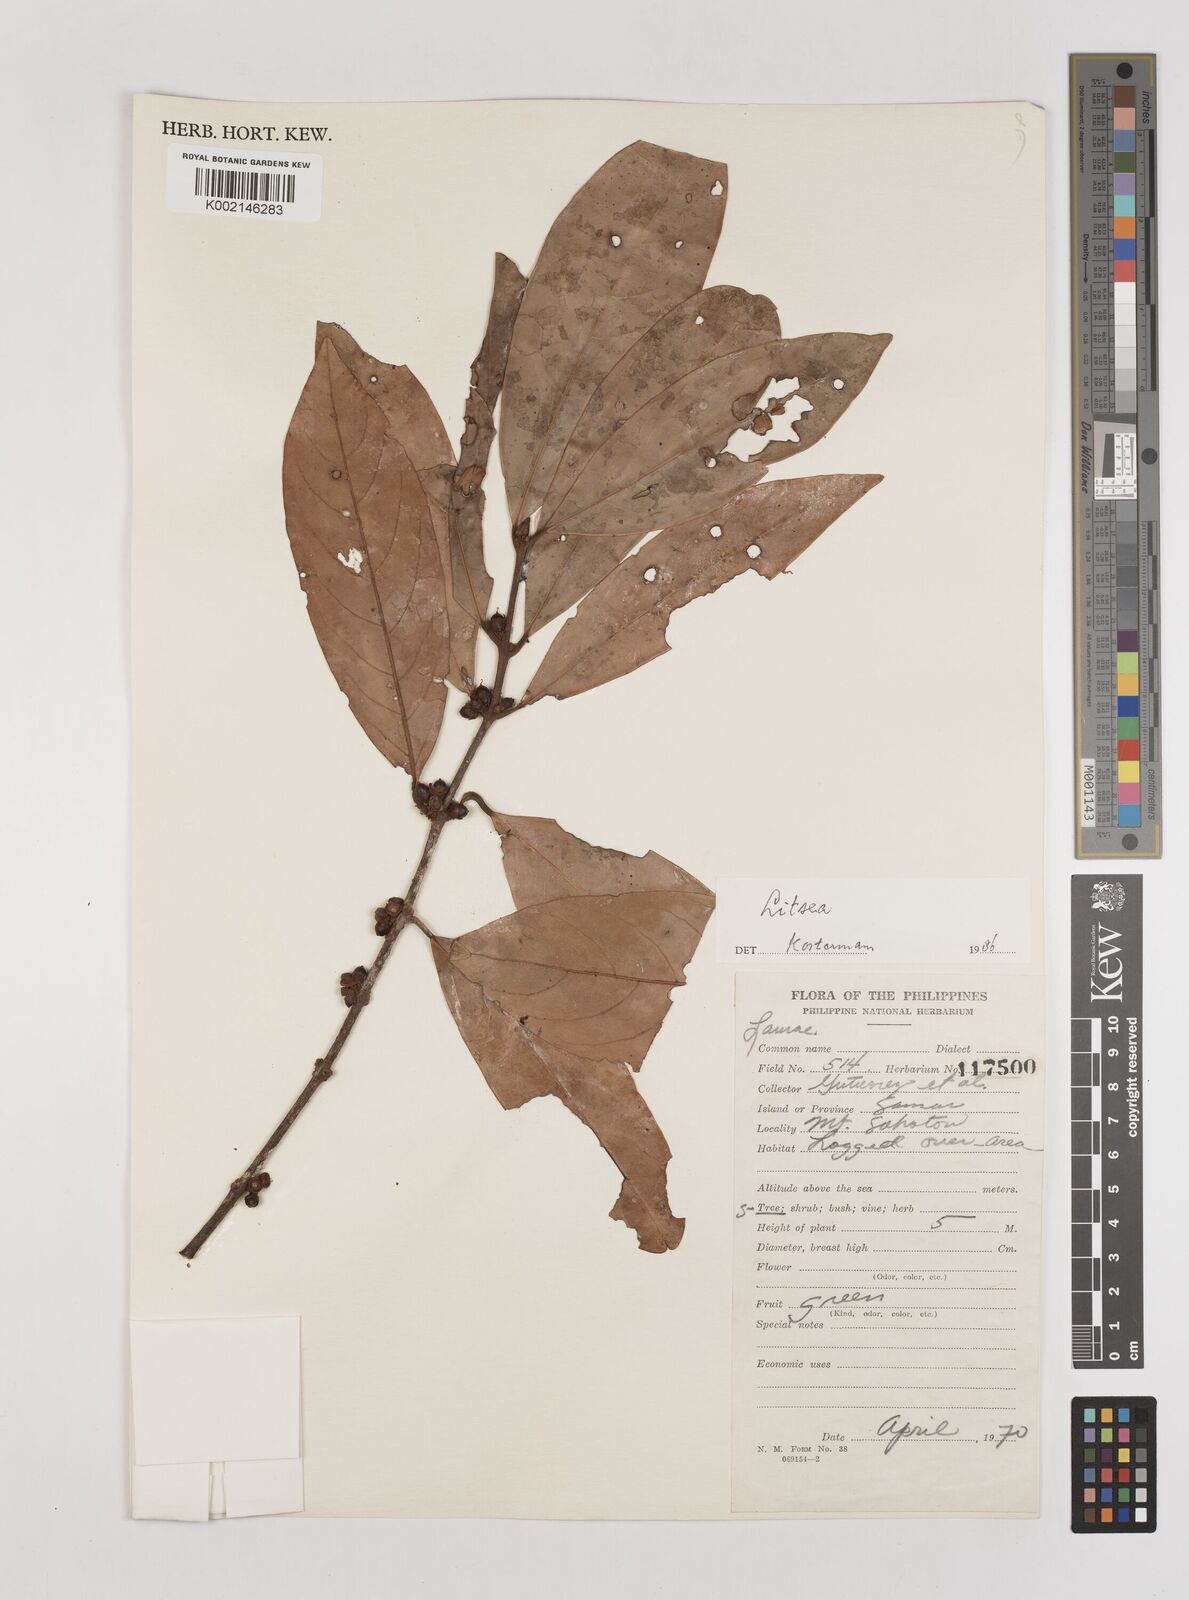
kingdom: Plantae
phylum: Tracheophyta
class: Magnoliopsida
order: Laurales
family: Lauraceae
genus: Litsea
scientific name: Litsea
